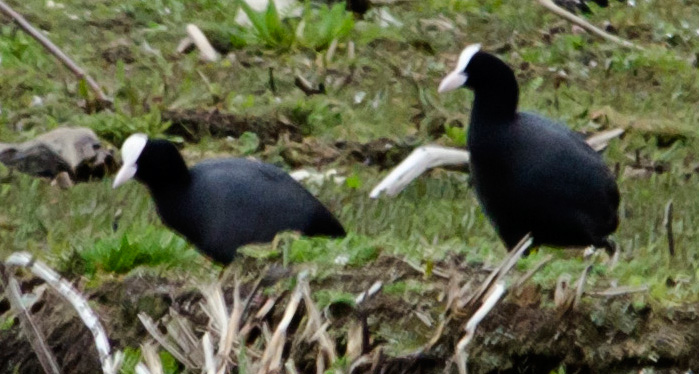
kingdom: Animalia
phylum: Chordata
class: Aves
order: Gruiformes
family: Rallidae
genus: Fulica
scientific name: Fulica atra
